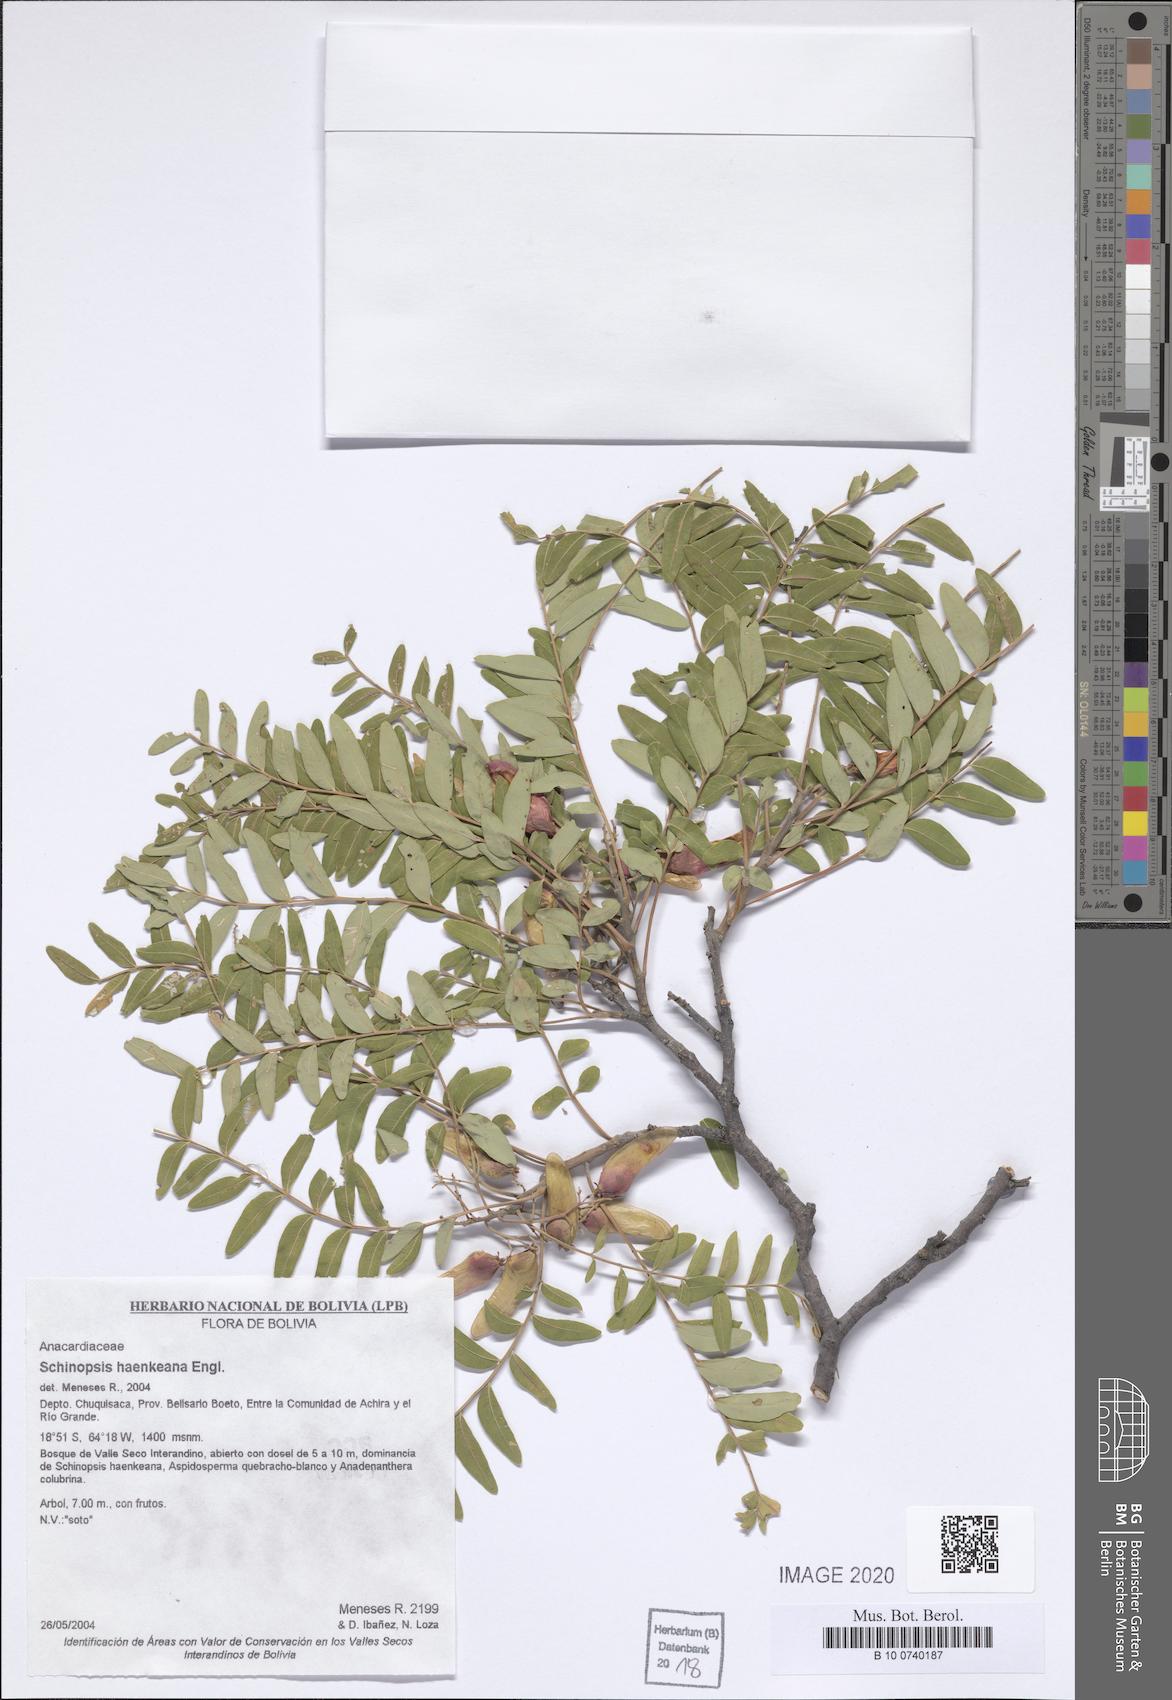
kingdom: Plantae
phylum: Tracheophyta
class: Magnoliopsida
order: Sapindales
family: Anacardiaceae
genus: Schinopsis
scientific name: Schinopsis lorentzii
